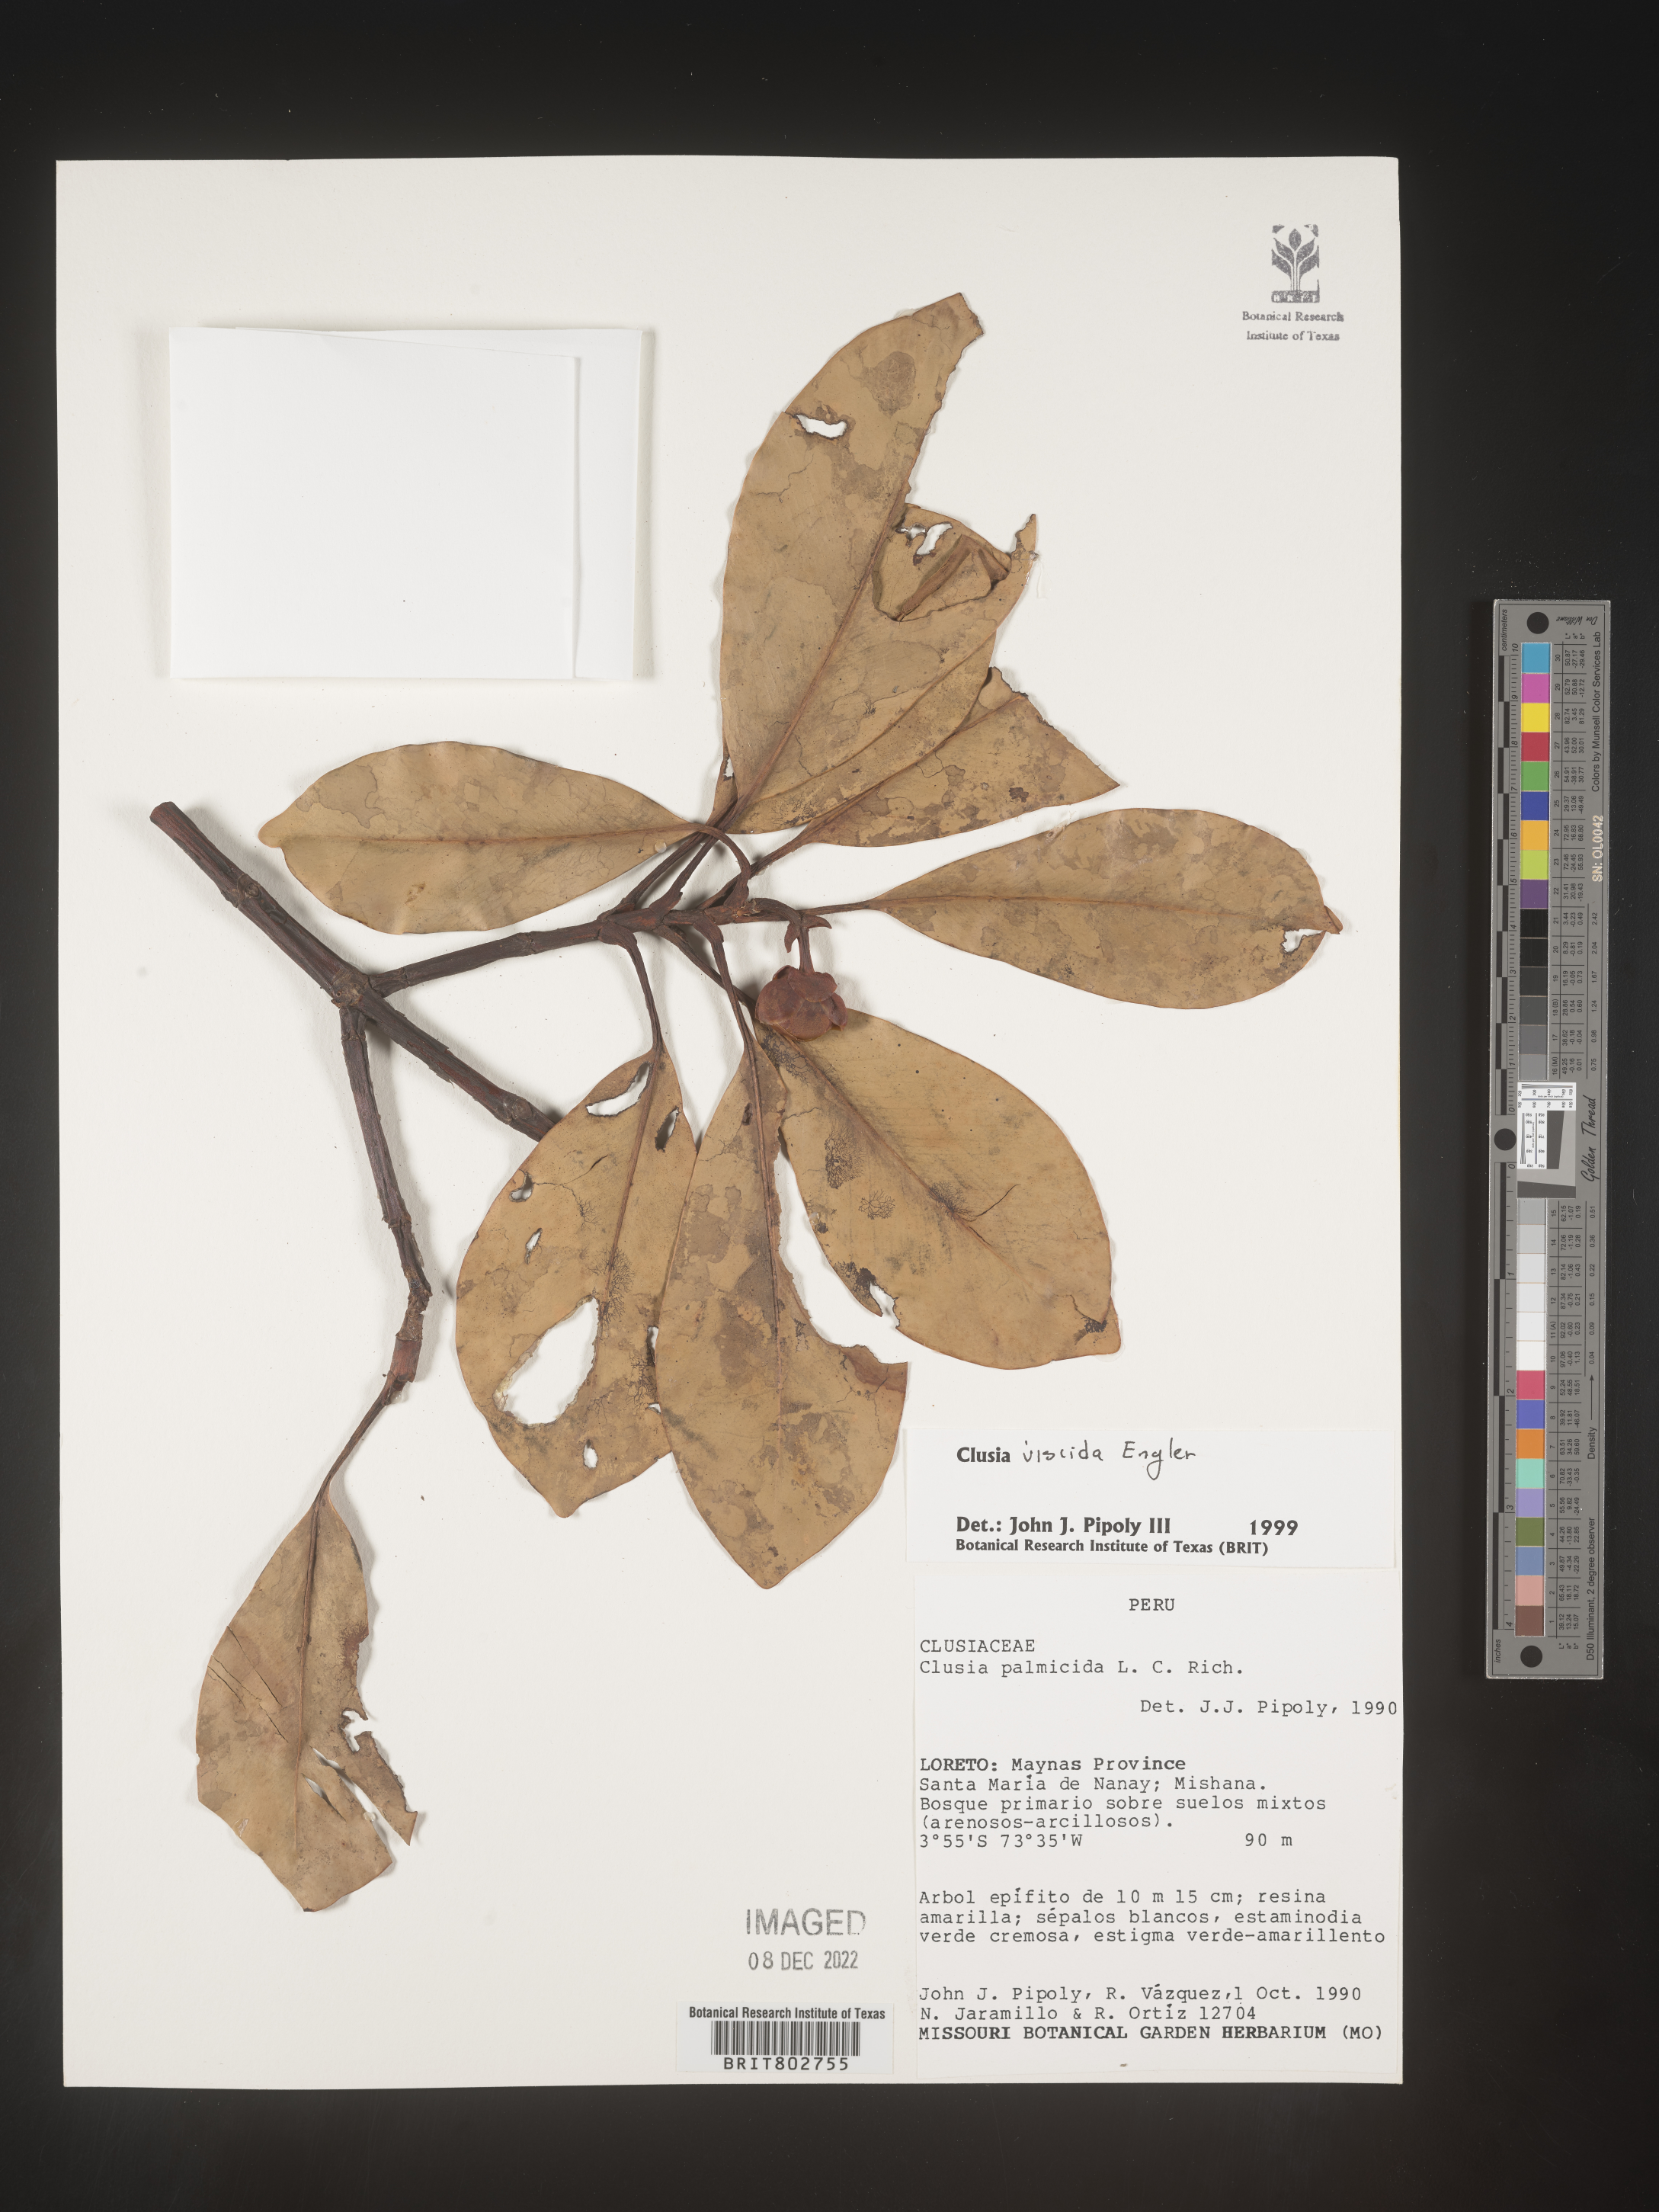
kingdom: Plantae
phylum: Tracheophyta
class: Magnoliopsida
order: Malpighiales
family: Clusiaceae
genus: Clusia
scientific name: Clusia viscida
